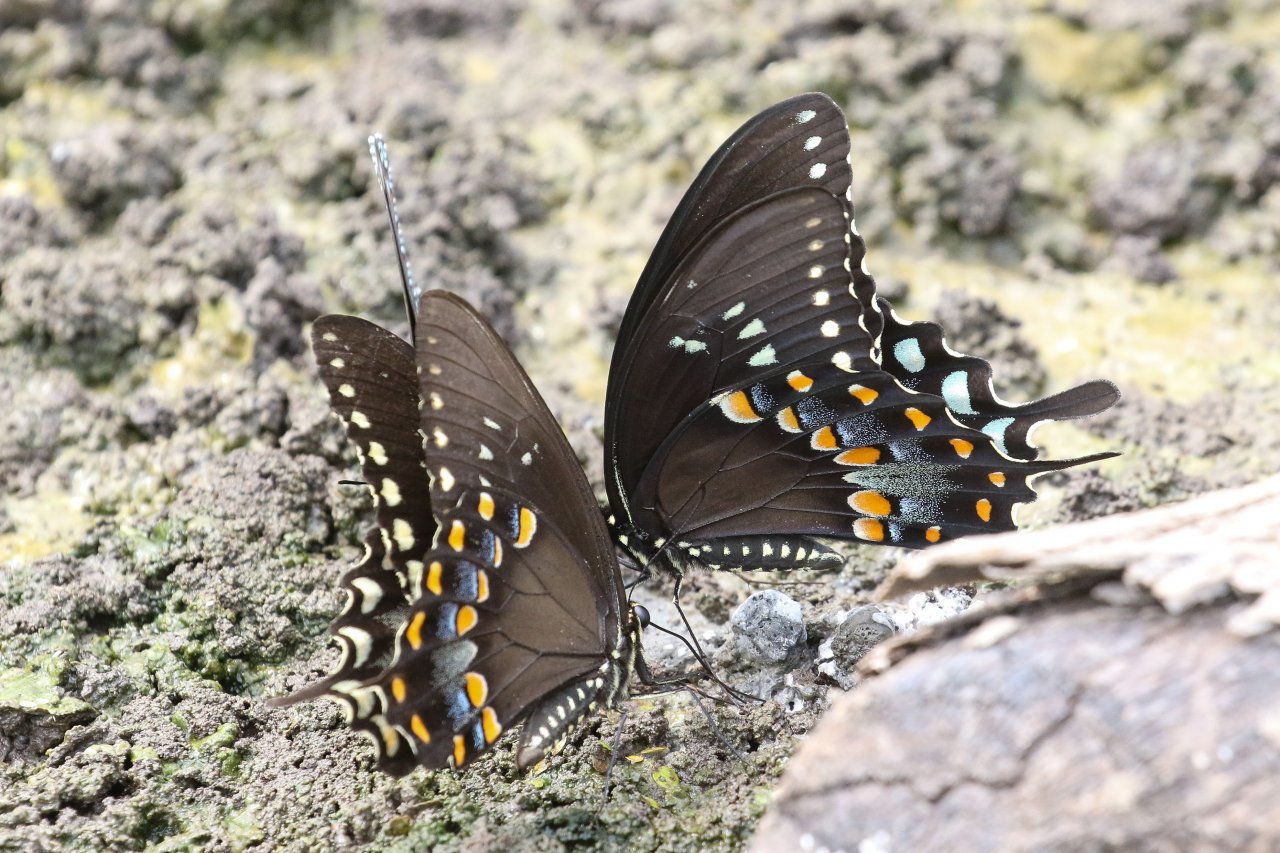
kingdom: Animalia
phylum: Arthropoda
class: Insecta
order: Lepidoptera
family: Papilionidae
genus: Pterourus
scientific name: Pterourus troilus
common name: Spicebush Swallowtail
